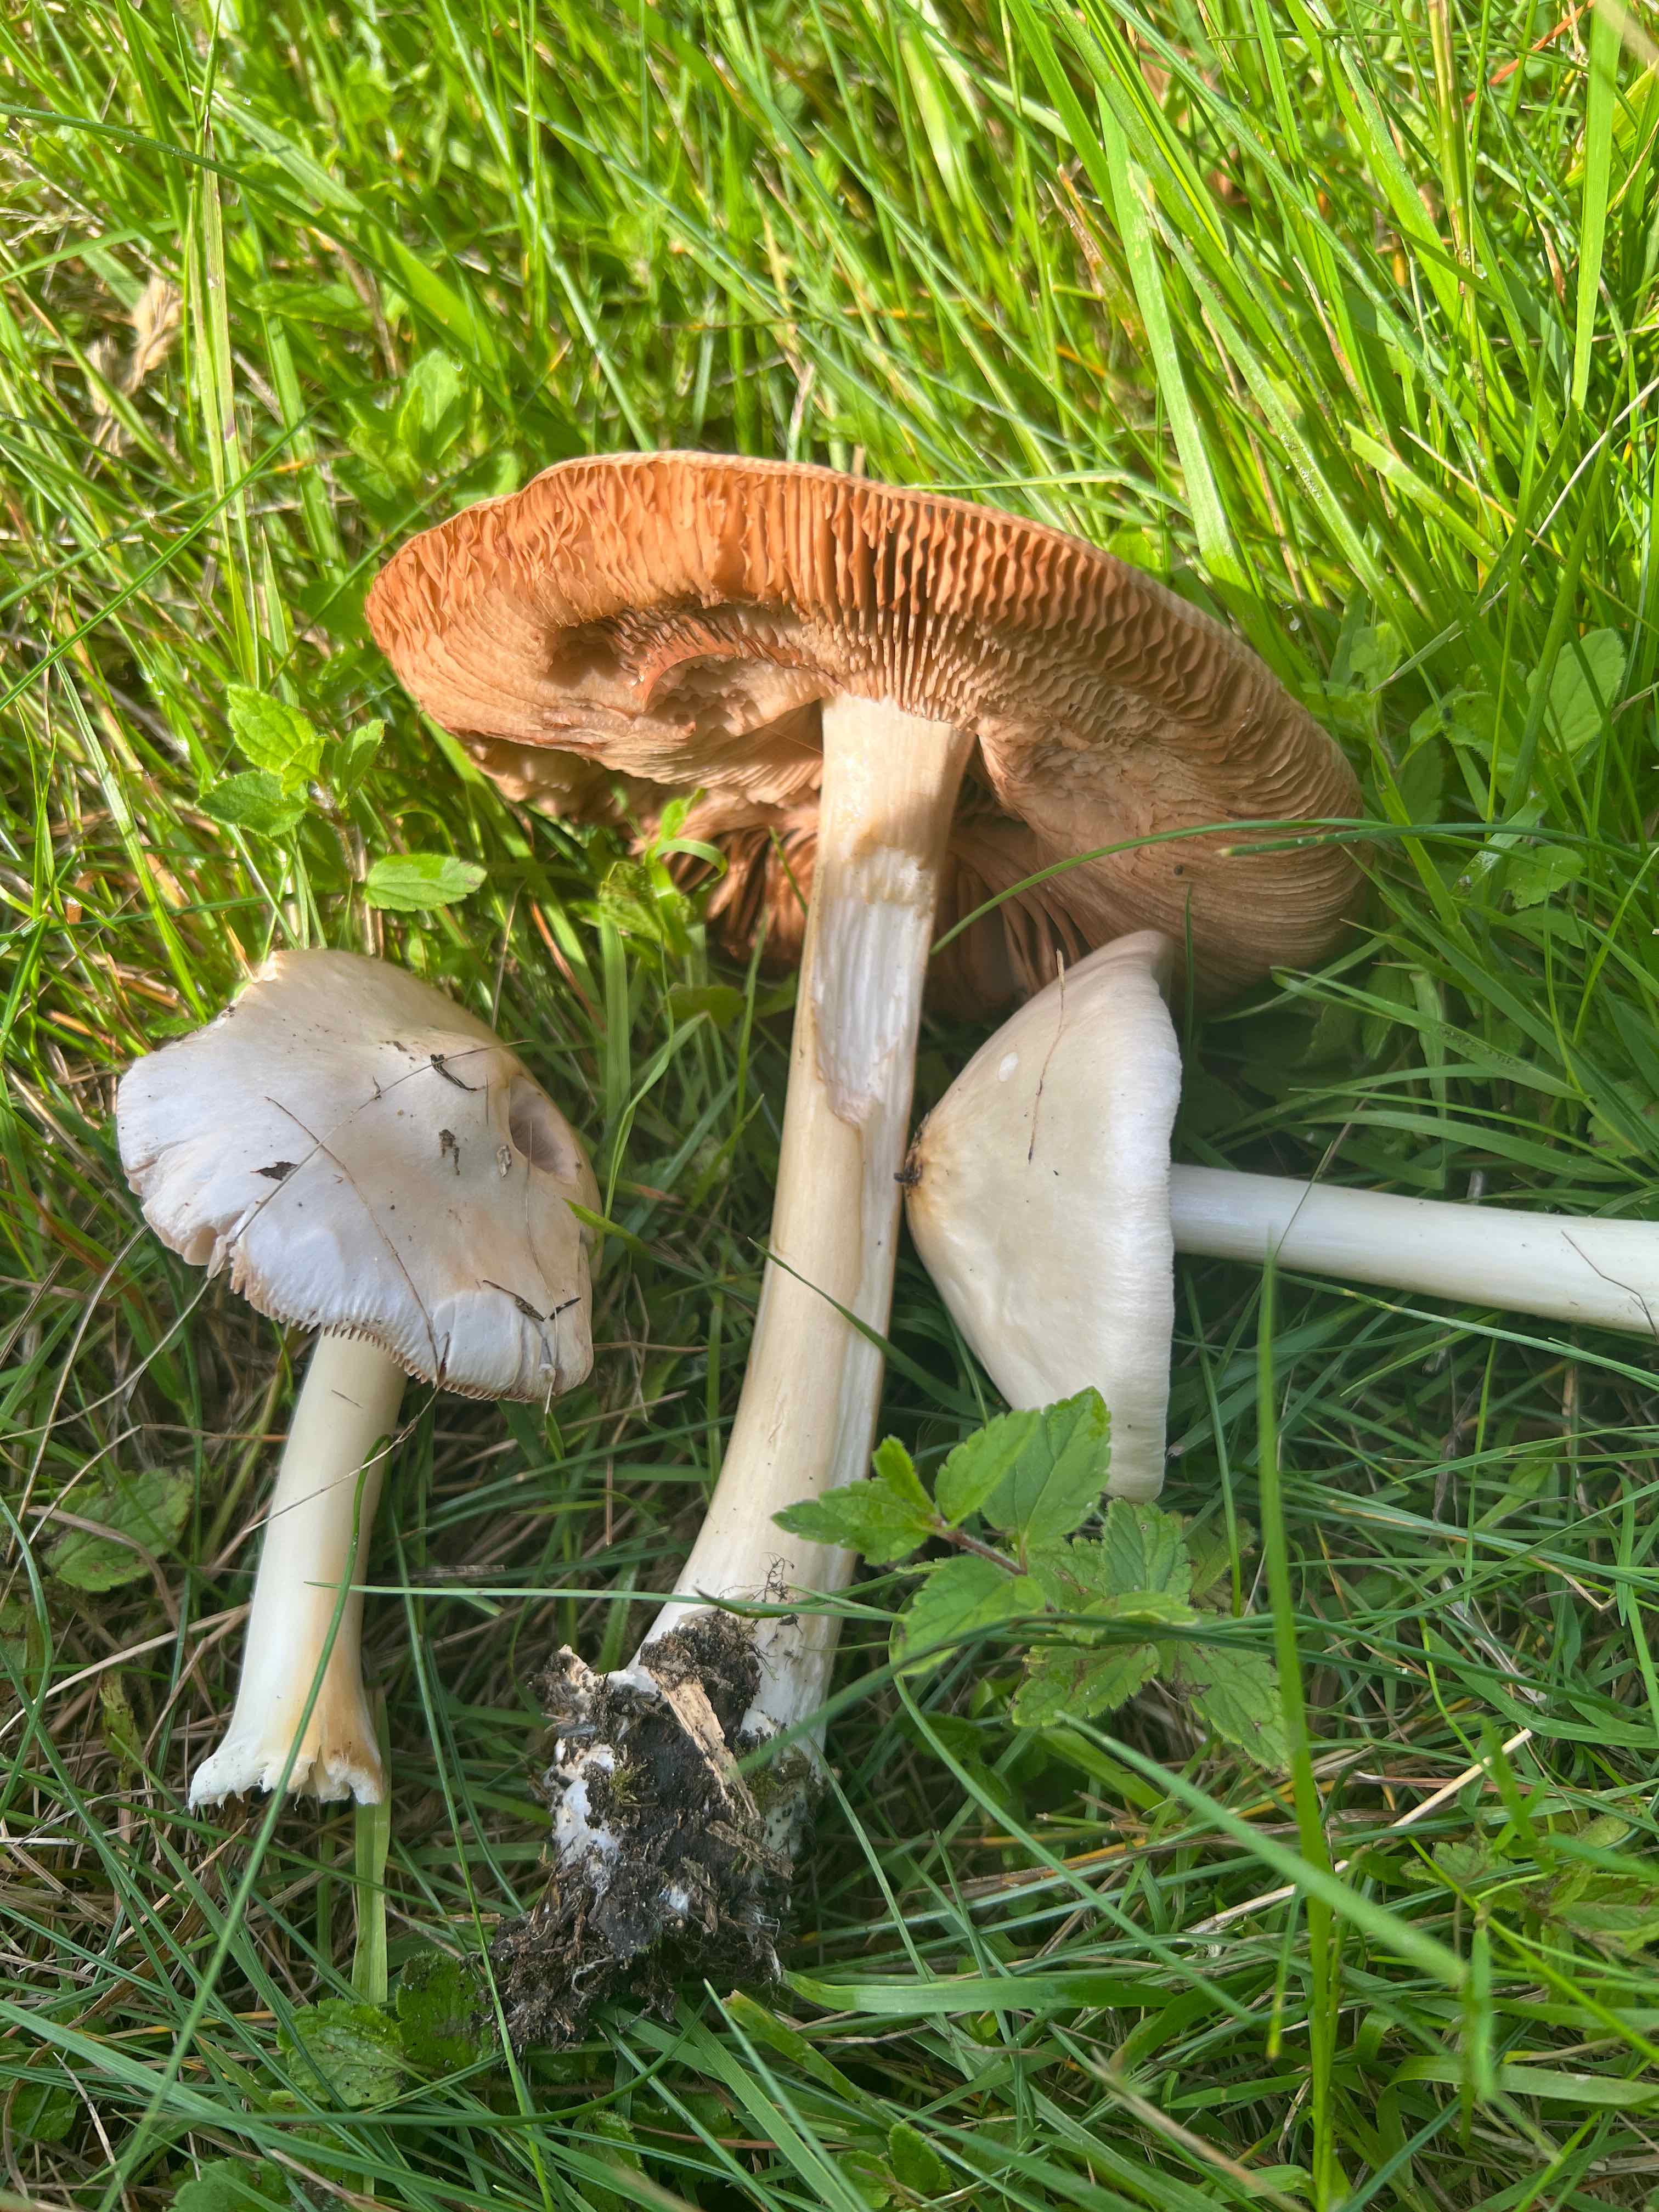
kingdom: Fungi
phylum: Basidiomycota
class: Agaricomycetes
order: Agaricales
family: Pluteaceae
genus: Volvopluteus
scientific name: Volvopluteus gloiocephalus
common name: høj posesvamp
